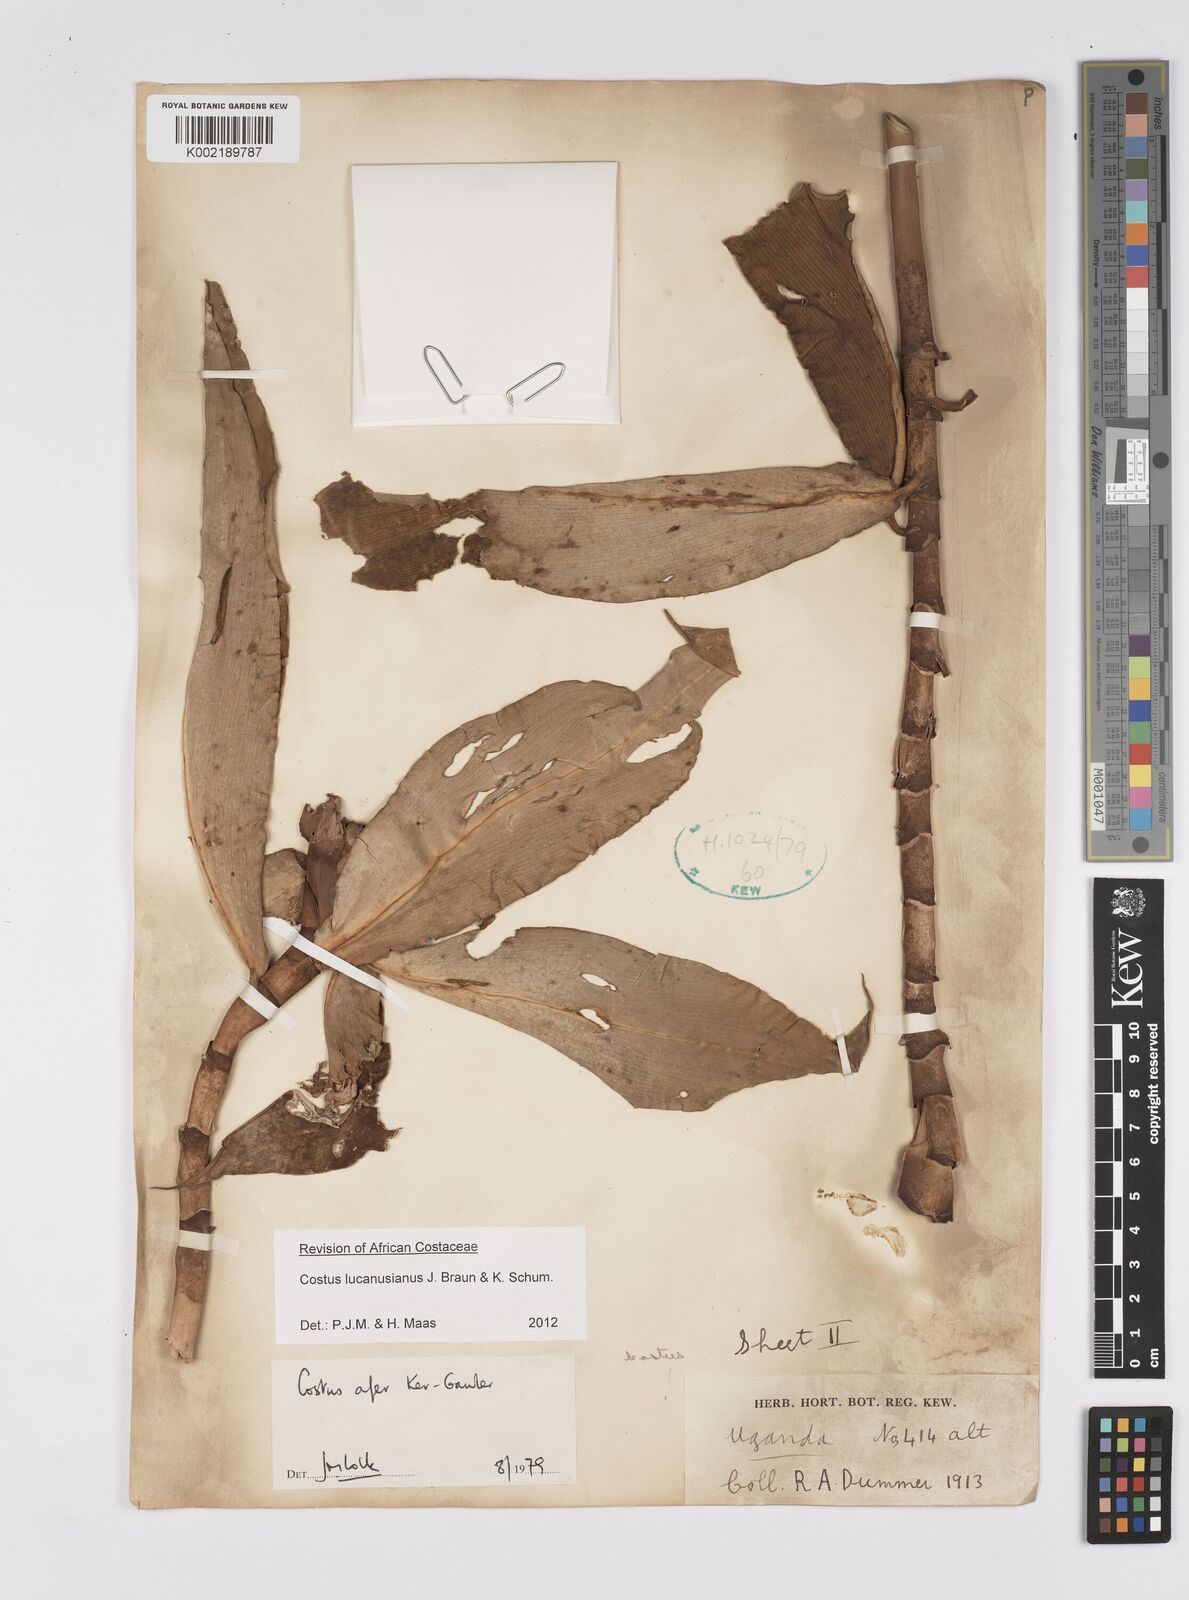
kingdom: Plantae
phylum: Tracheophyta
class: Liliopsida
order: Zingiberales
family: Costaceae
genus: Costus
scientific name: Costus lucanusianus
